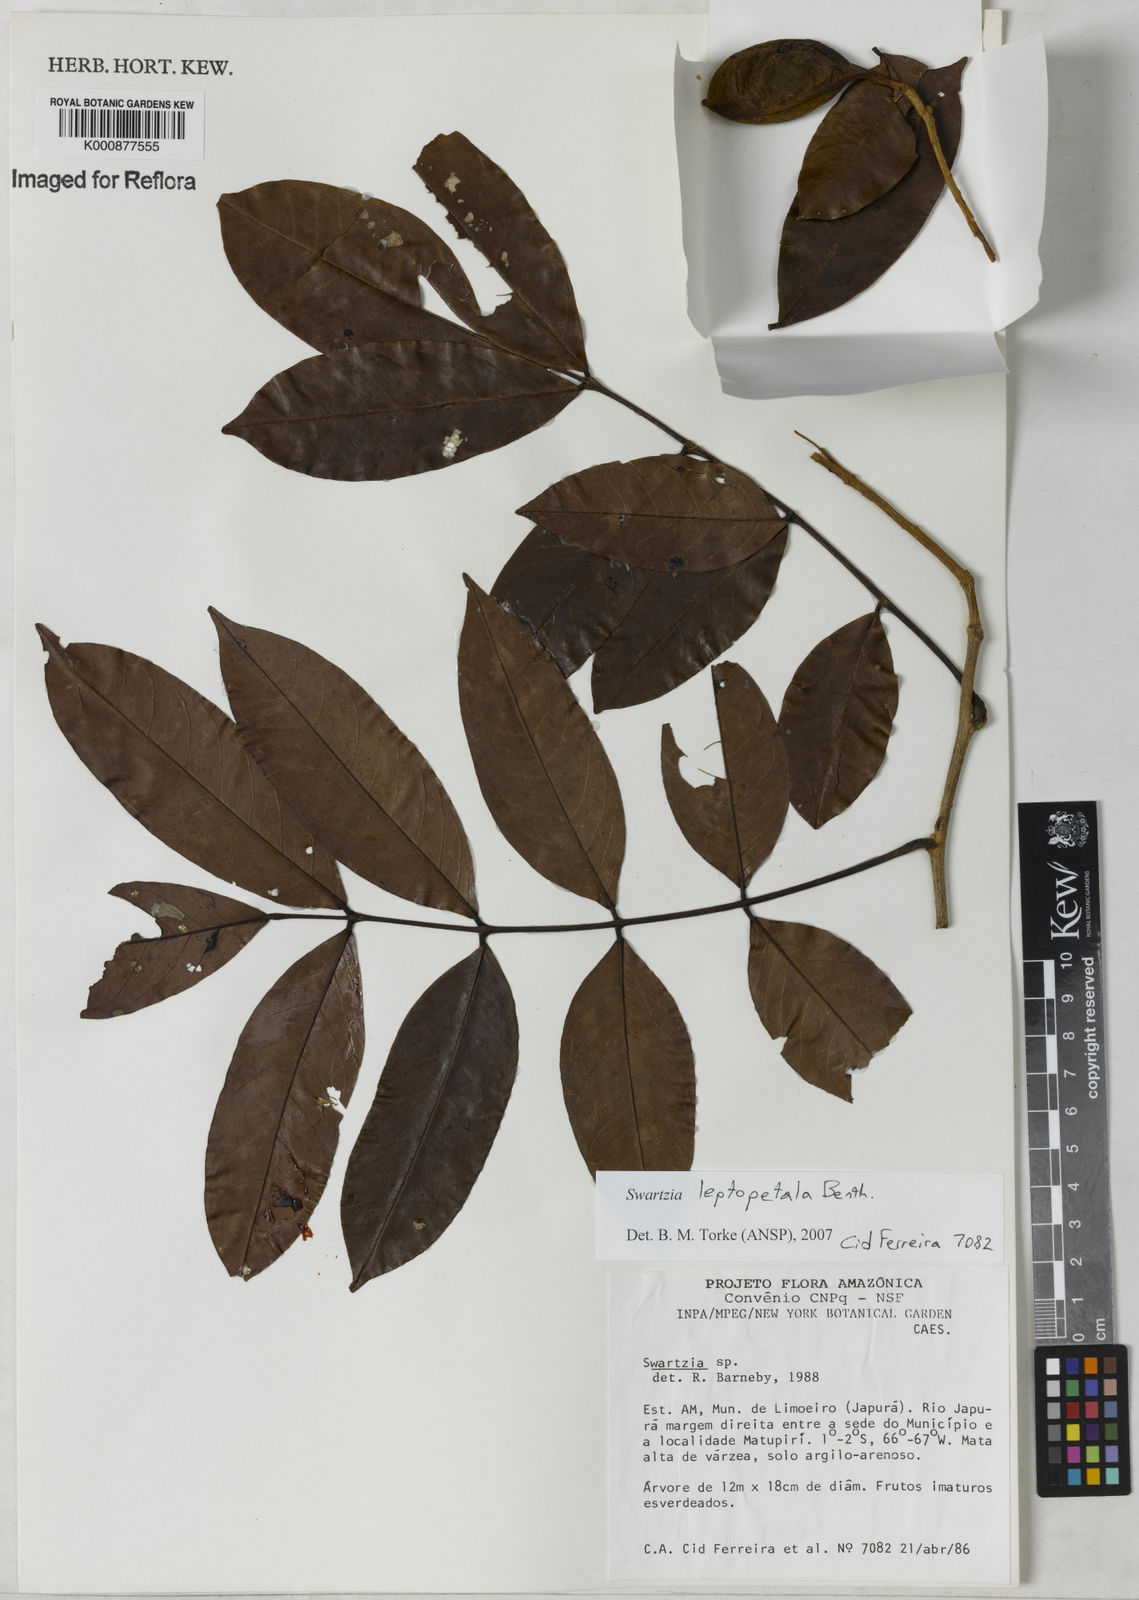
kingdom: Plantae
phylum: Tracheophyta
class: Magnoliopsida
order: Fabales
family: Fabaceae
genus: Swartzia
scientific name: Swartzia leptopetala
